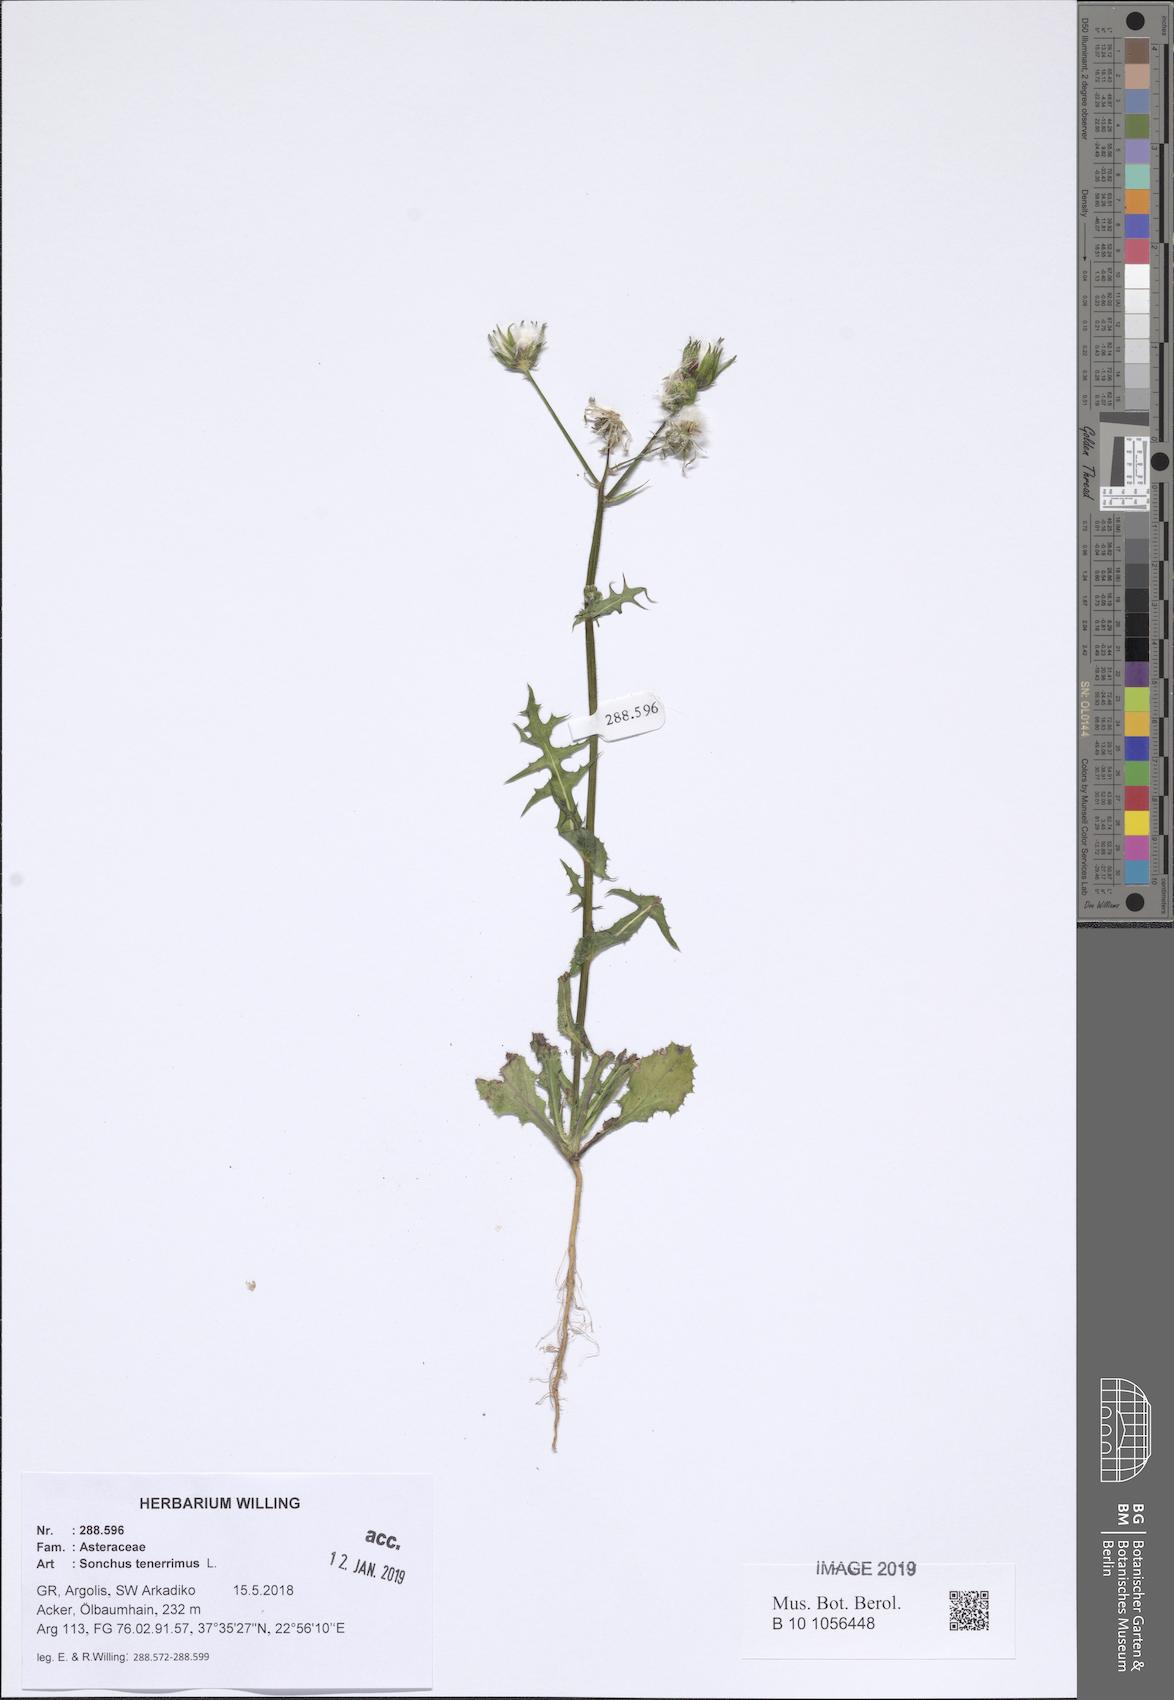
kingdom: Plantae
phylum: Tracheophyta
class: Magnoliopsida
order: Asterales
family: Asteraceae
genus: Sonchus
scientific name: Sonchus tenerrimus
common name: Clammy sowthistle
